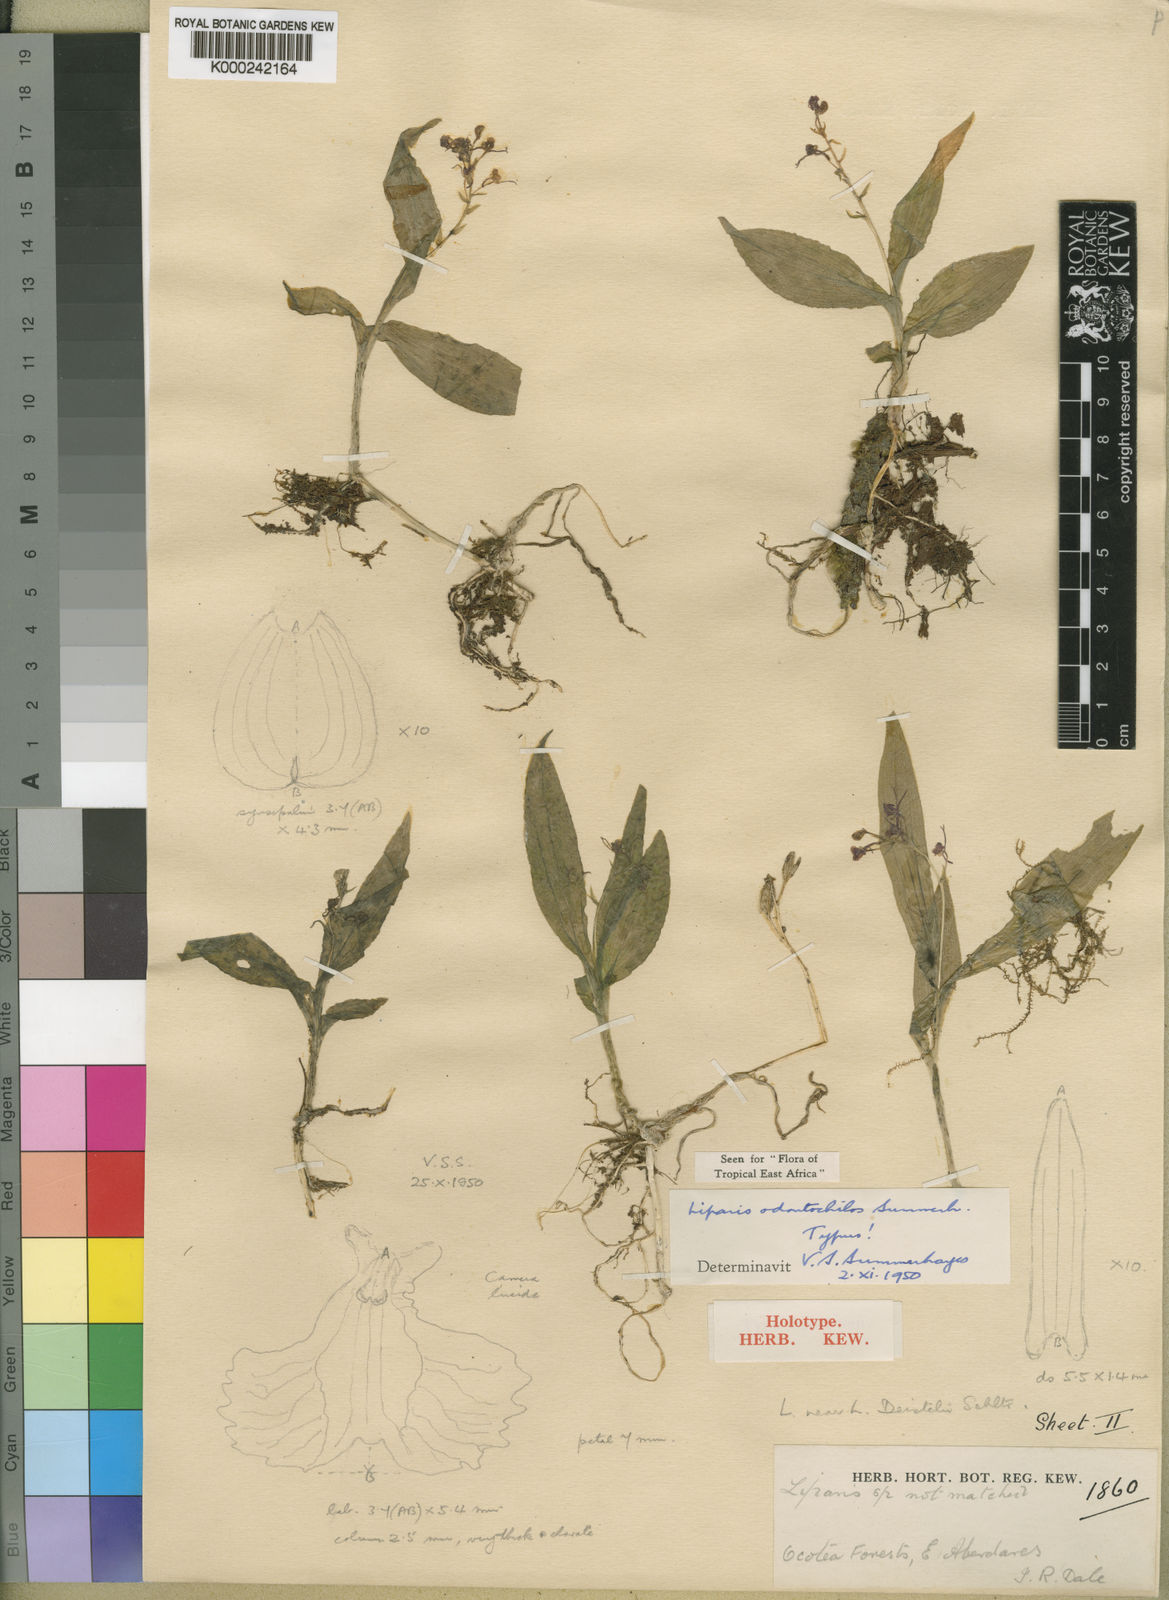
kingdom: Plantae
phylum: Tracheophyta
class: Liliopsida
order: Asparagales
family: Orchidaceae
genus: Liparis
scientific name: Liparis deistelii
